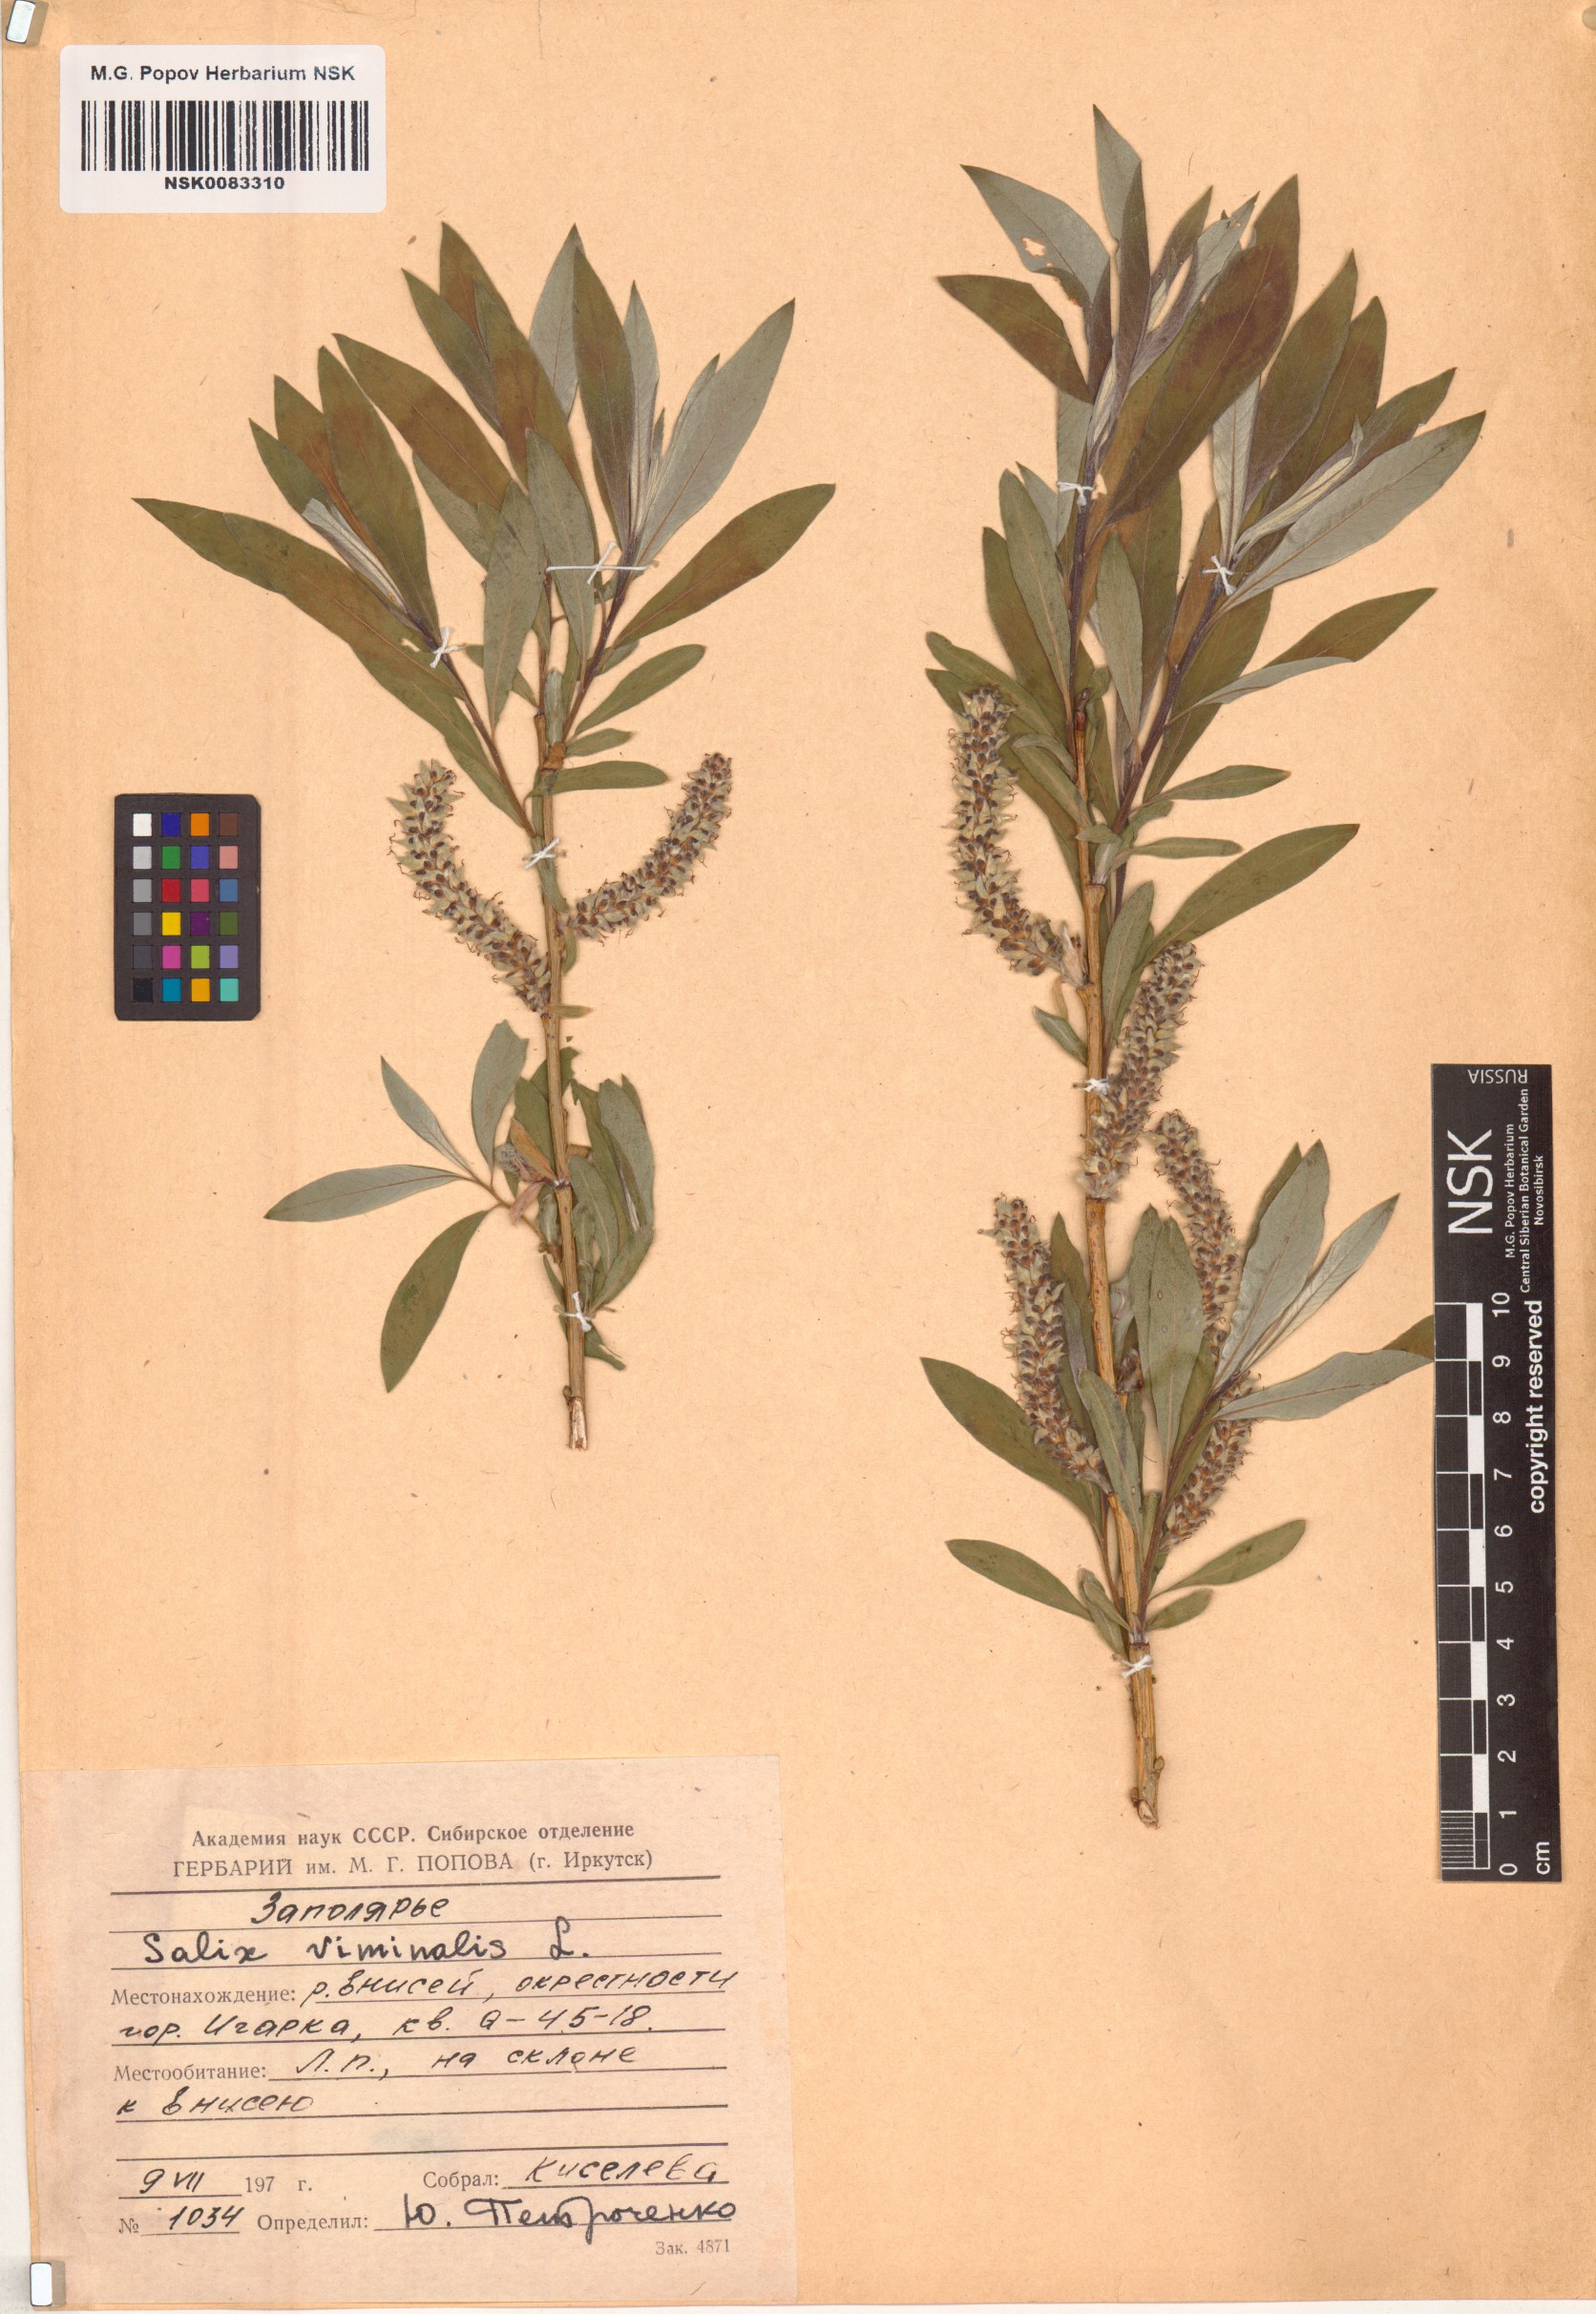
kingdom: Plantae
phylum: Tracheophyta
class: Magnoliopsida
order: Malpighiales
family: Salicaceae
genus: Salix
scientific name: Salix viminalis
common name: Osier
